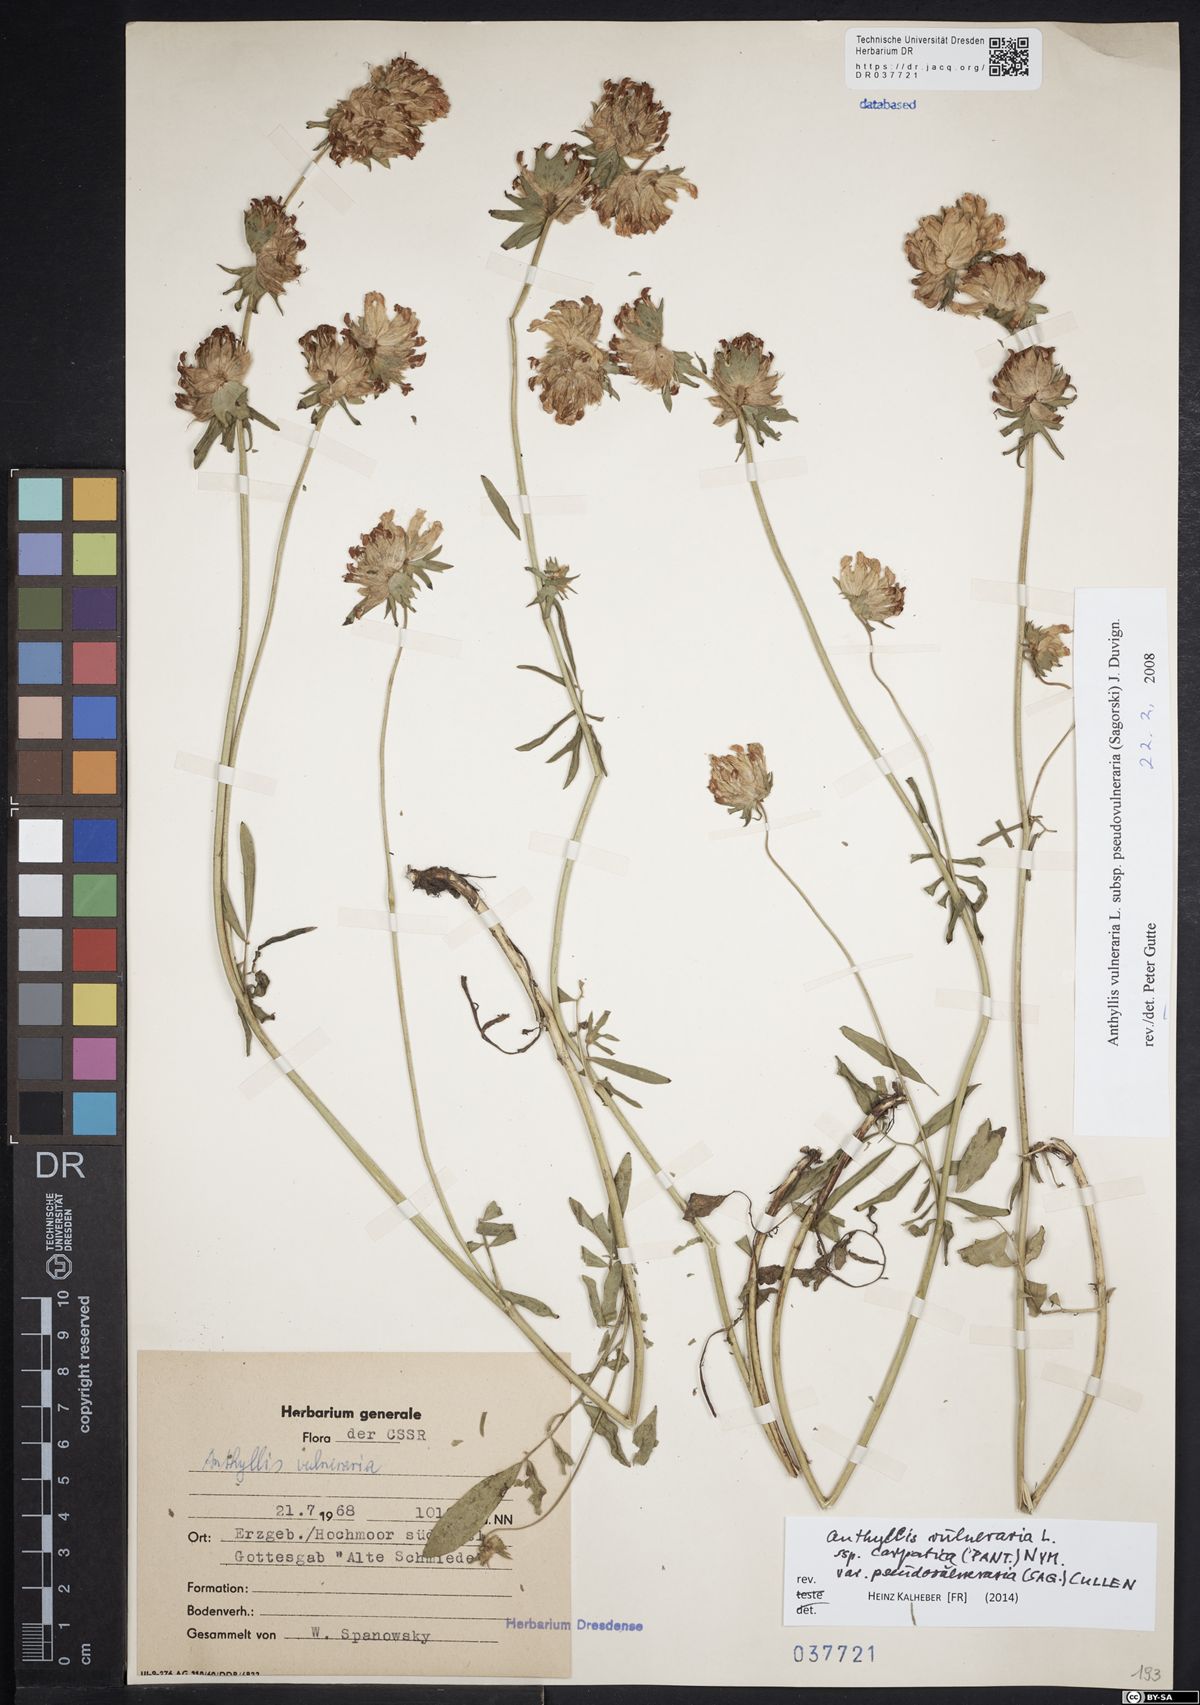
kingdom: Plantae
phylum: Tracheophyta
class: Magnoliopsida
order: Fabales
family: Fabaceae
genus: Anthyllis
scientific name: Anthyllis vulneraria
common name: Kidney vetch
